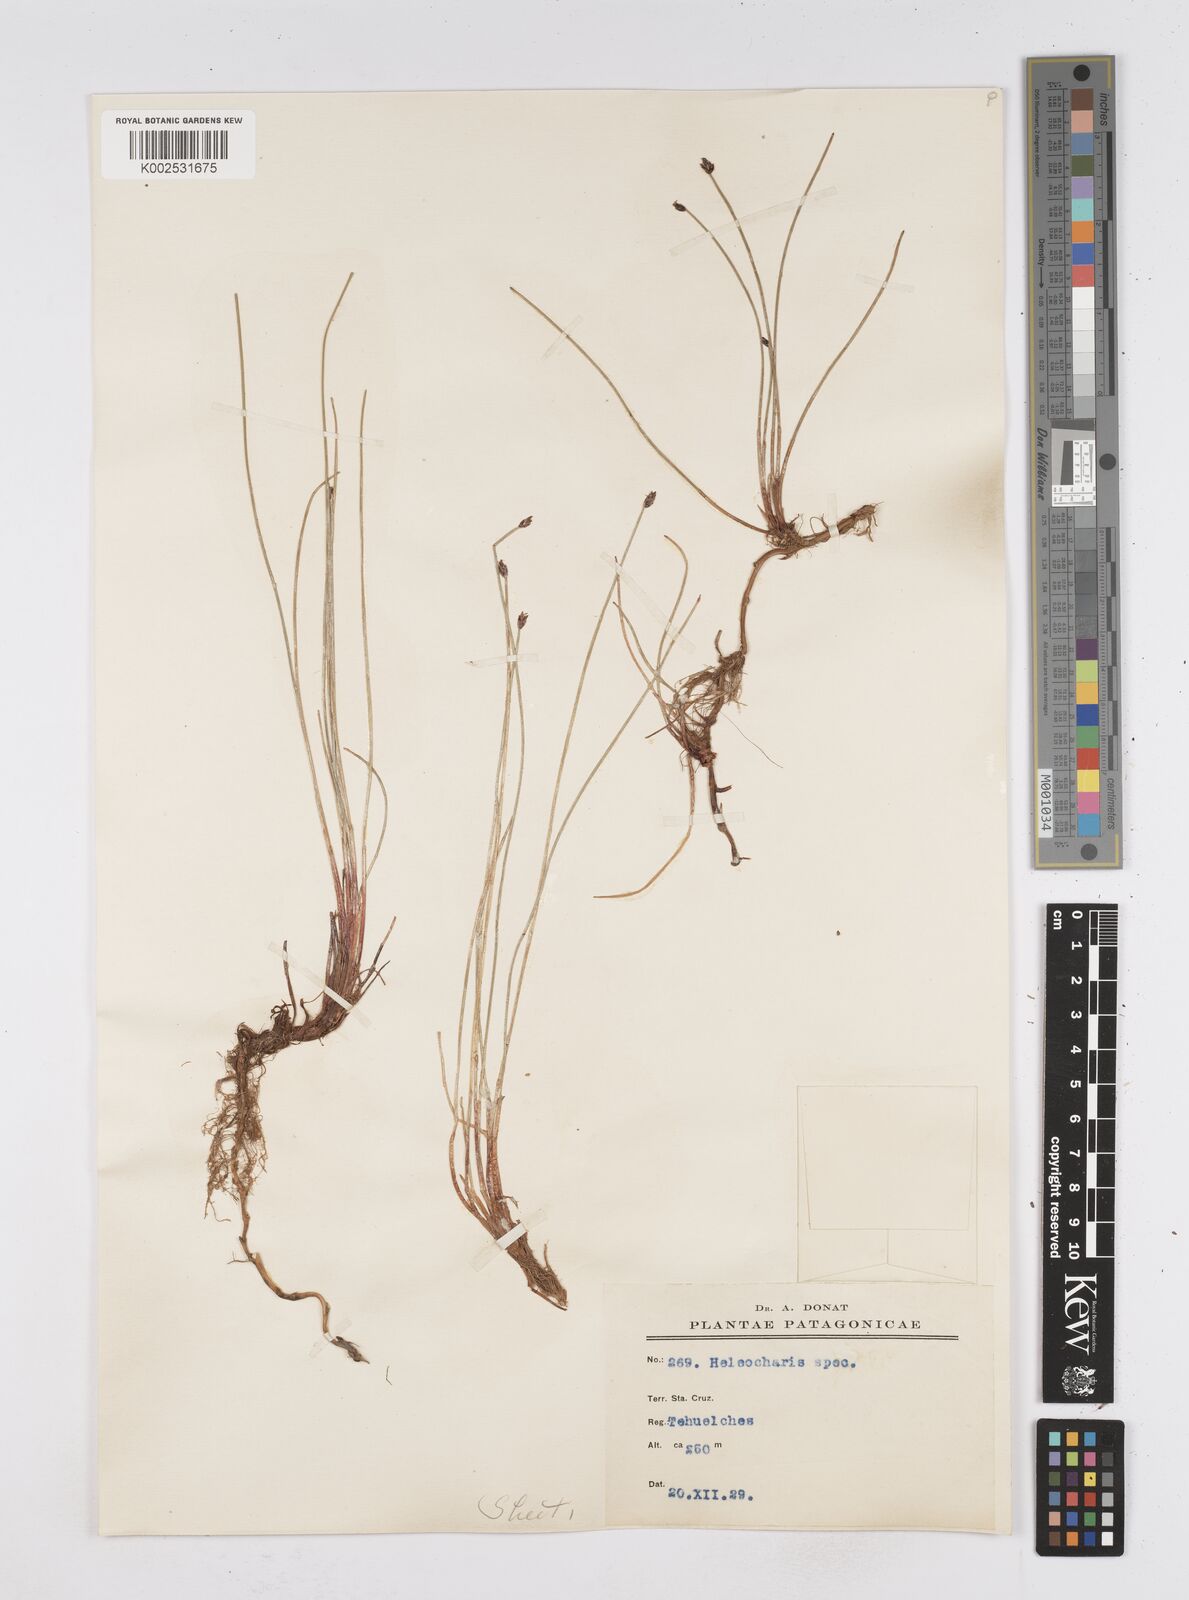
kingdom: Plantae
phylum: Tracheophyta
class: Liliopsida
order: Poales
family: Cyperaceae
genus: Eleocharis
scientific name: Eleocharis
